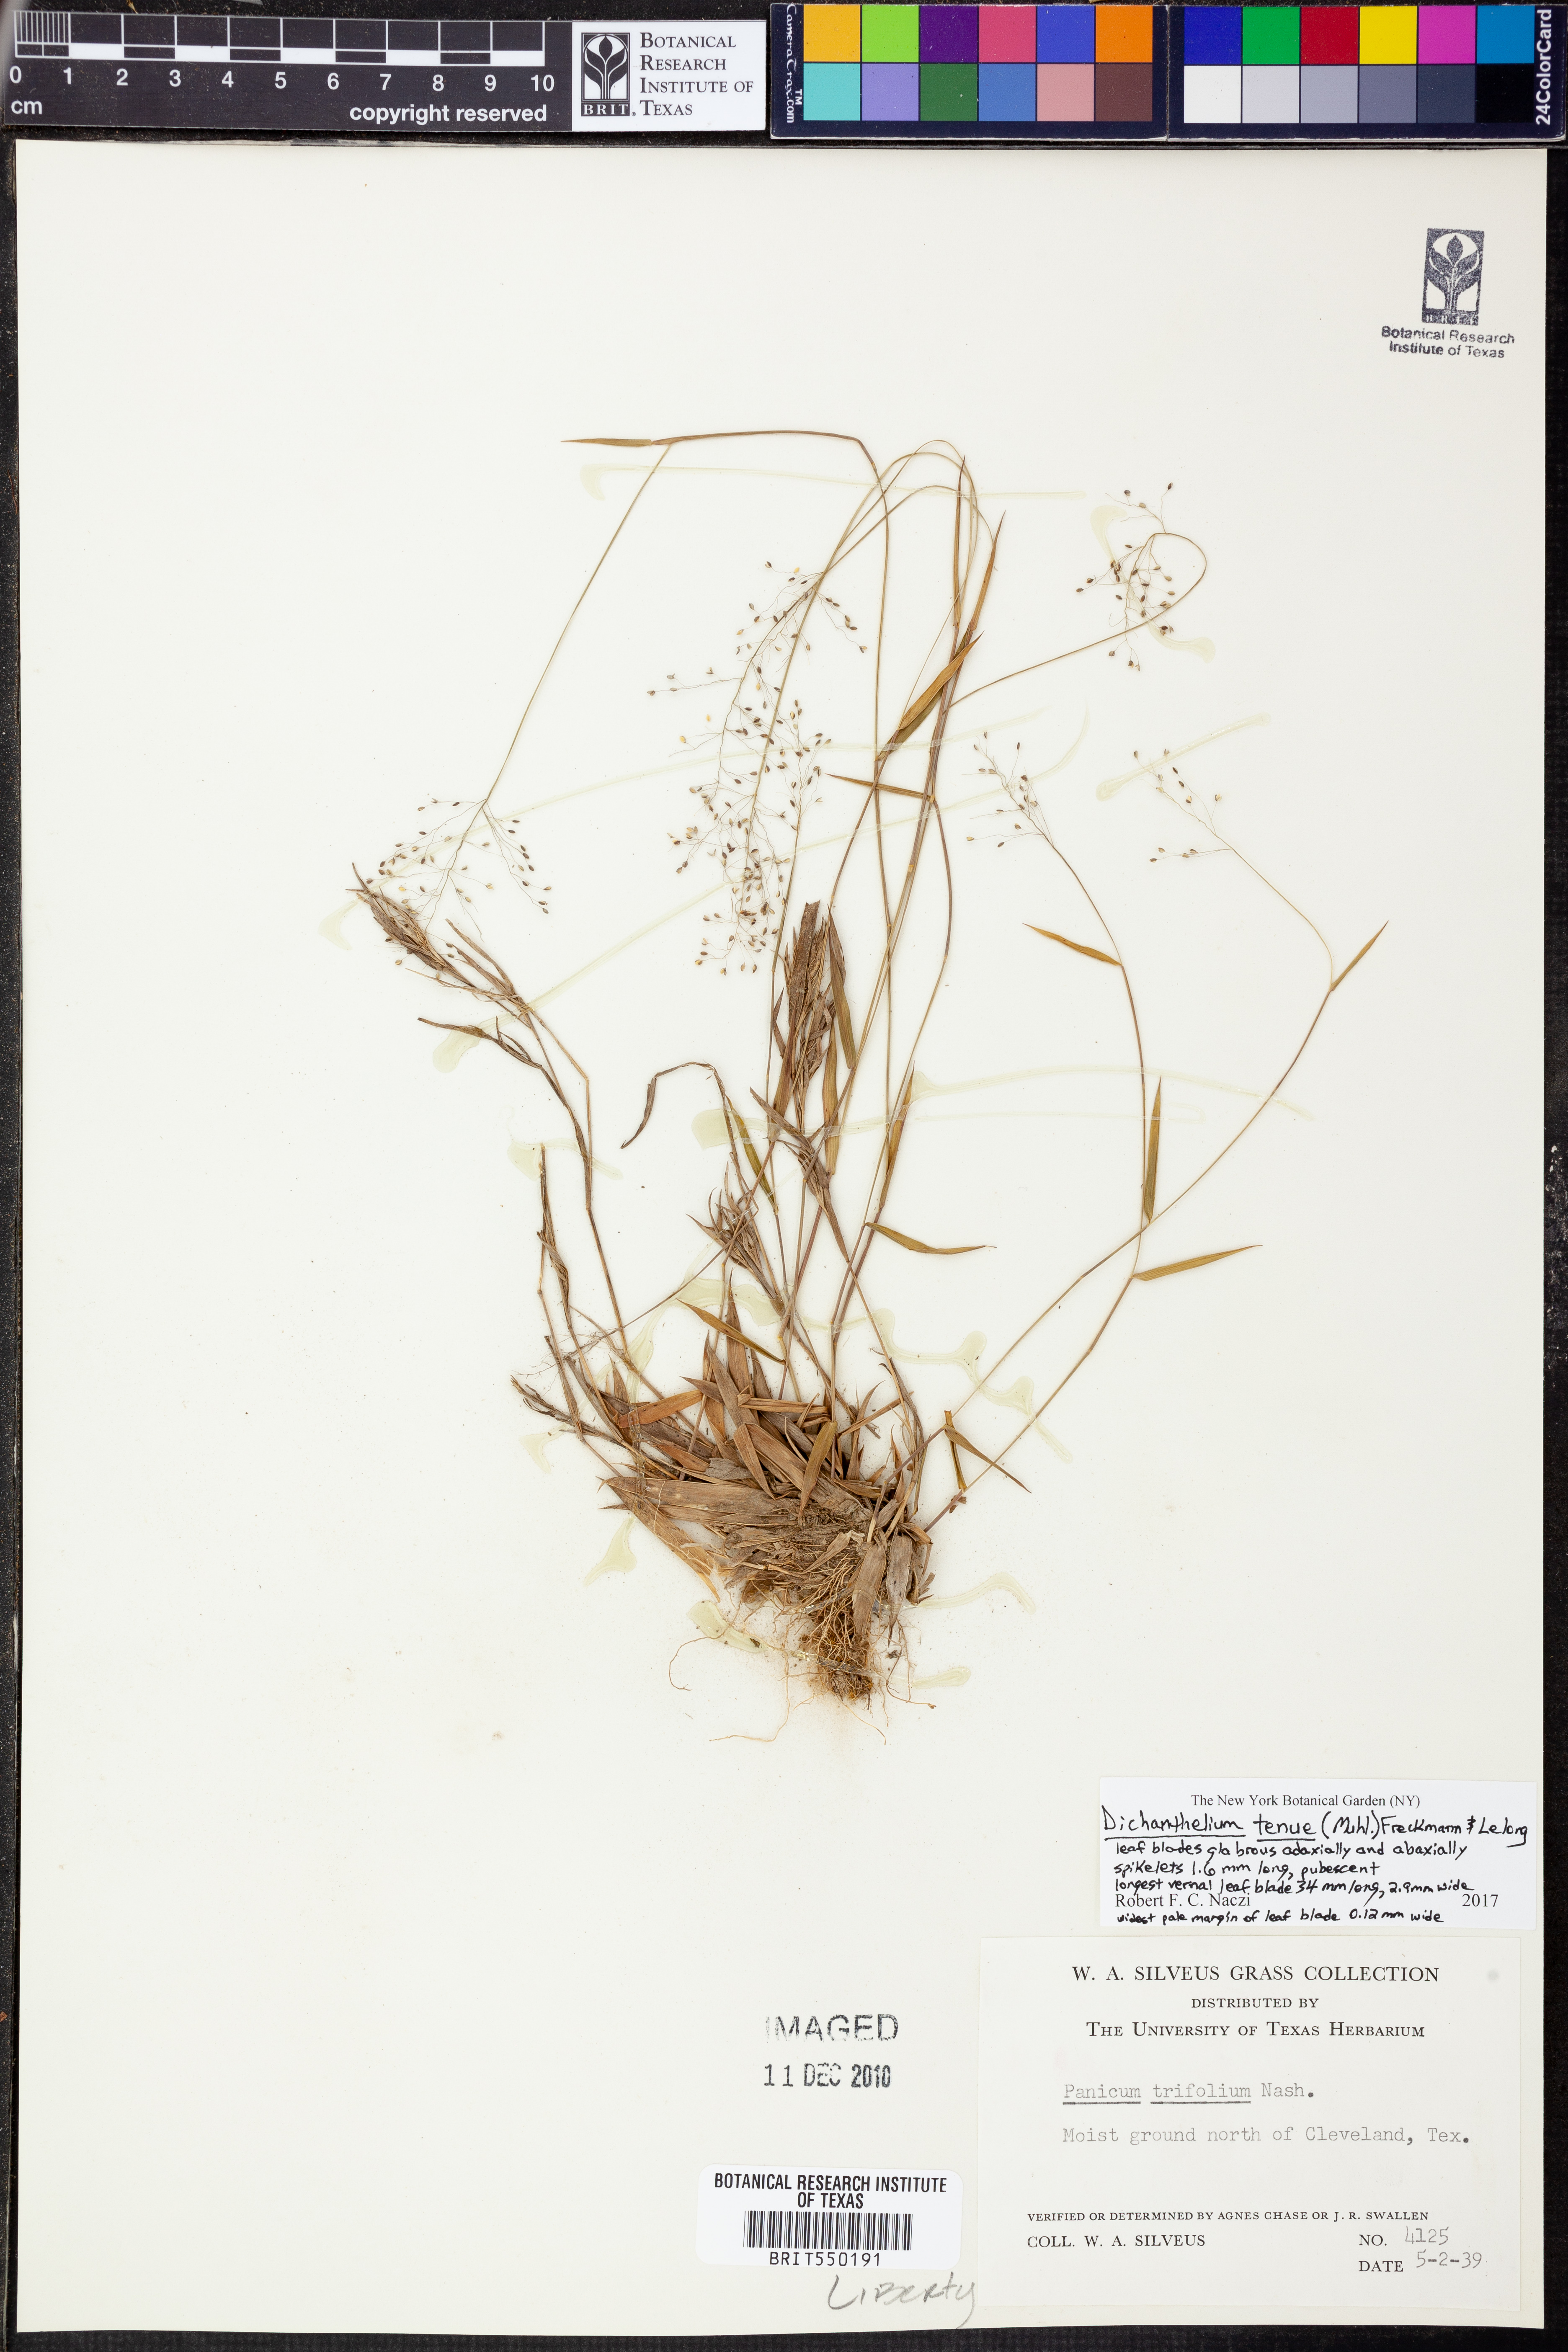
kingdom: Plantae
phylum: Tracheophyta
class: Liliopsida
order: Poales
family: Poaceae
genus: Dichanthelium
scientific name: Dichanthelium tenue
